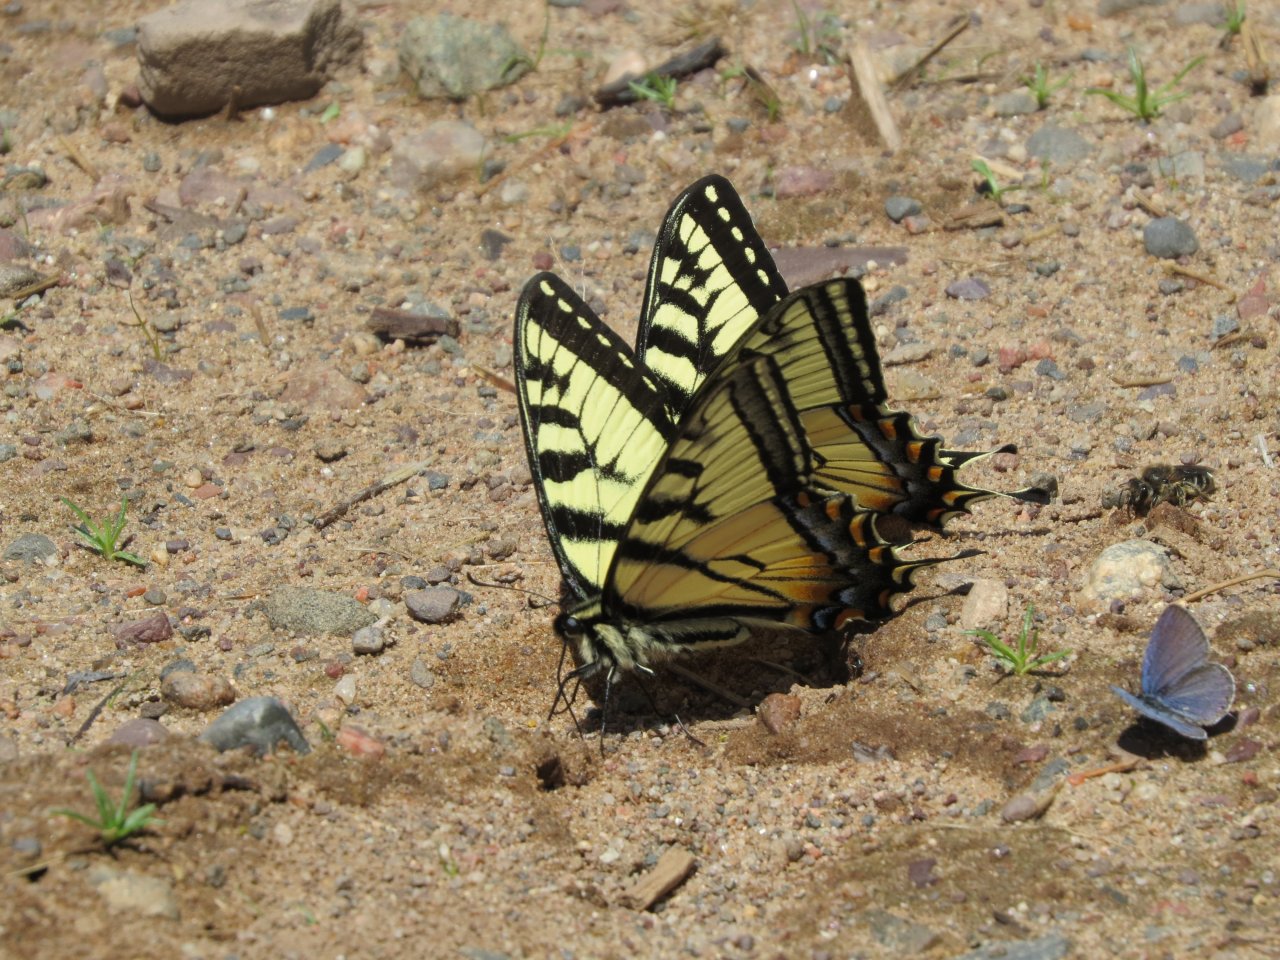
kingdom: Animalia
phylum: Arthropoda
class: Insecta
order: Lepidoptera
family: Papilionidae
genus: Pterourus
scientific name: Pterourus canadensis
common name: Canadian Tiger Swallowtail
